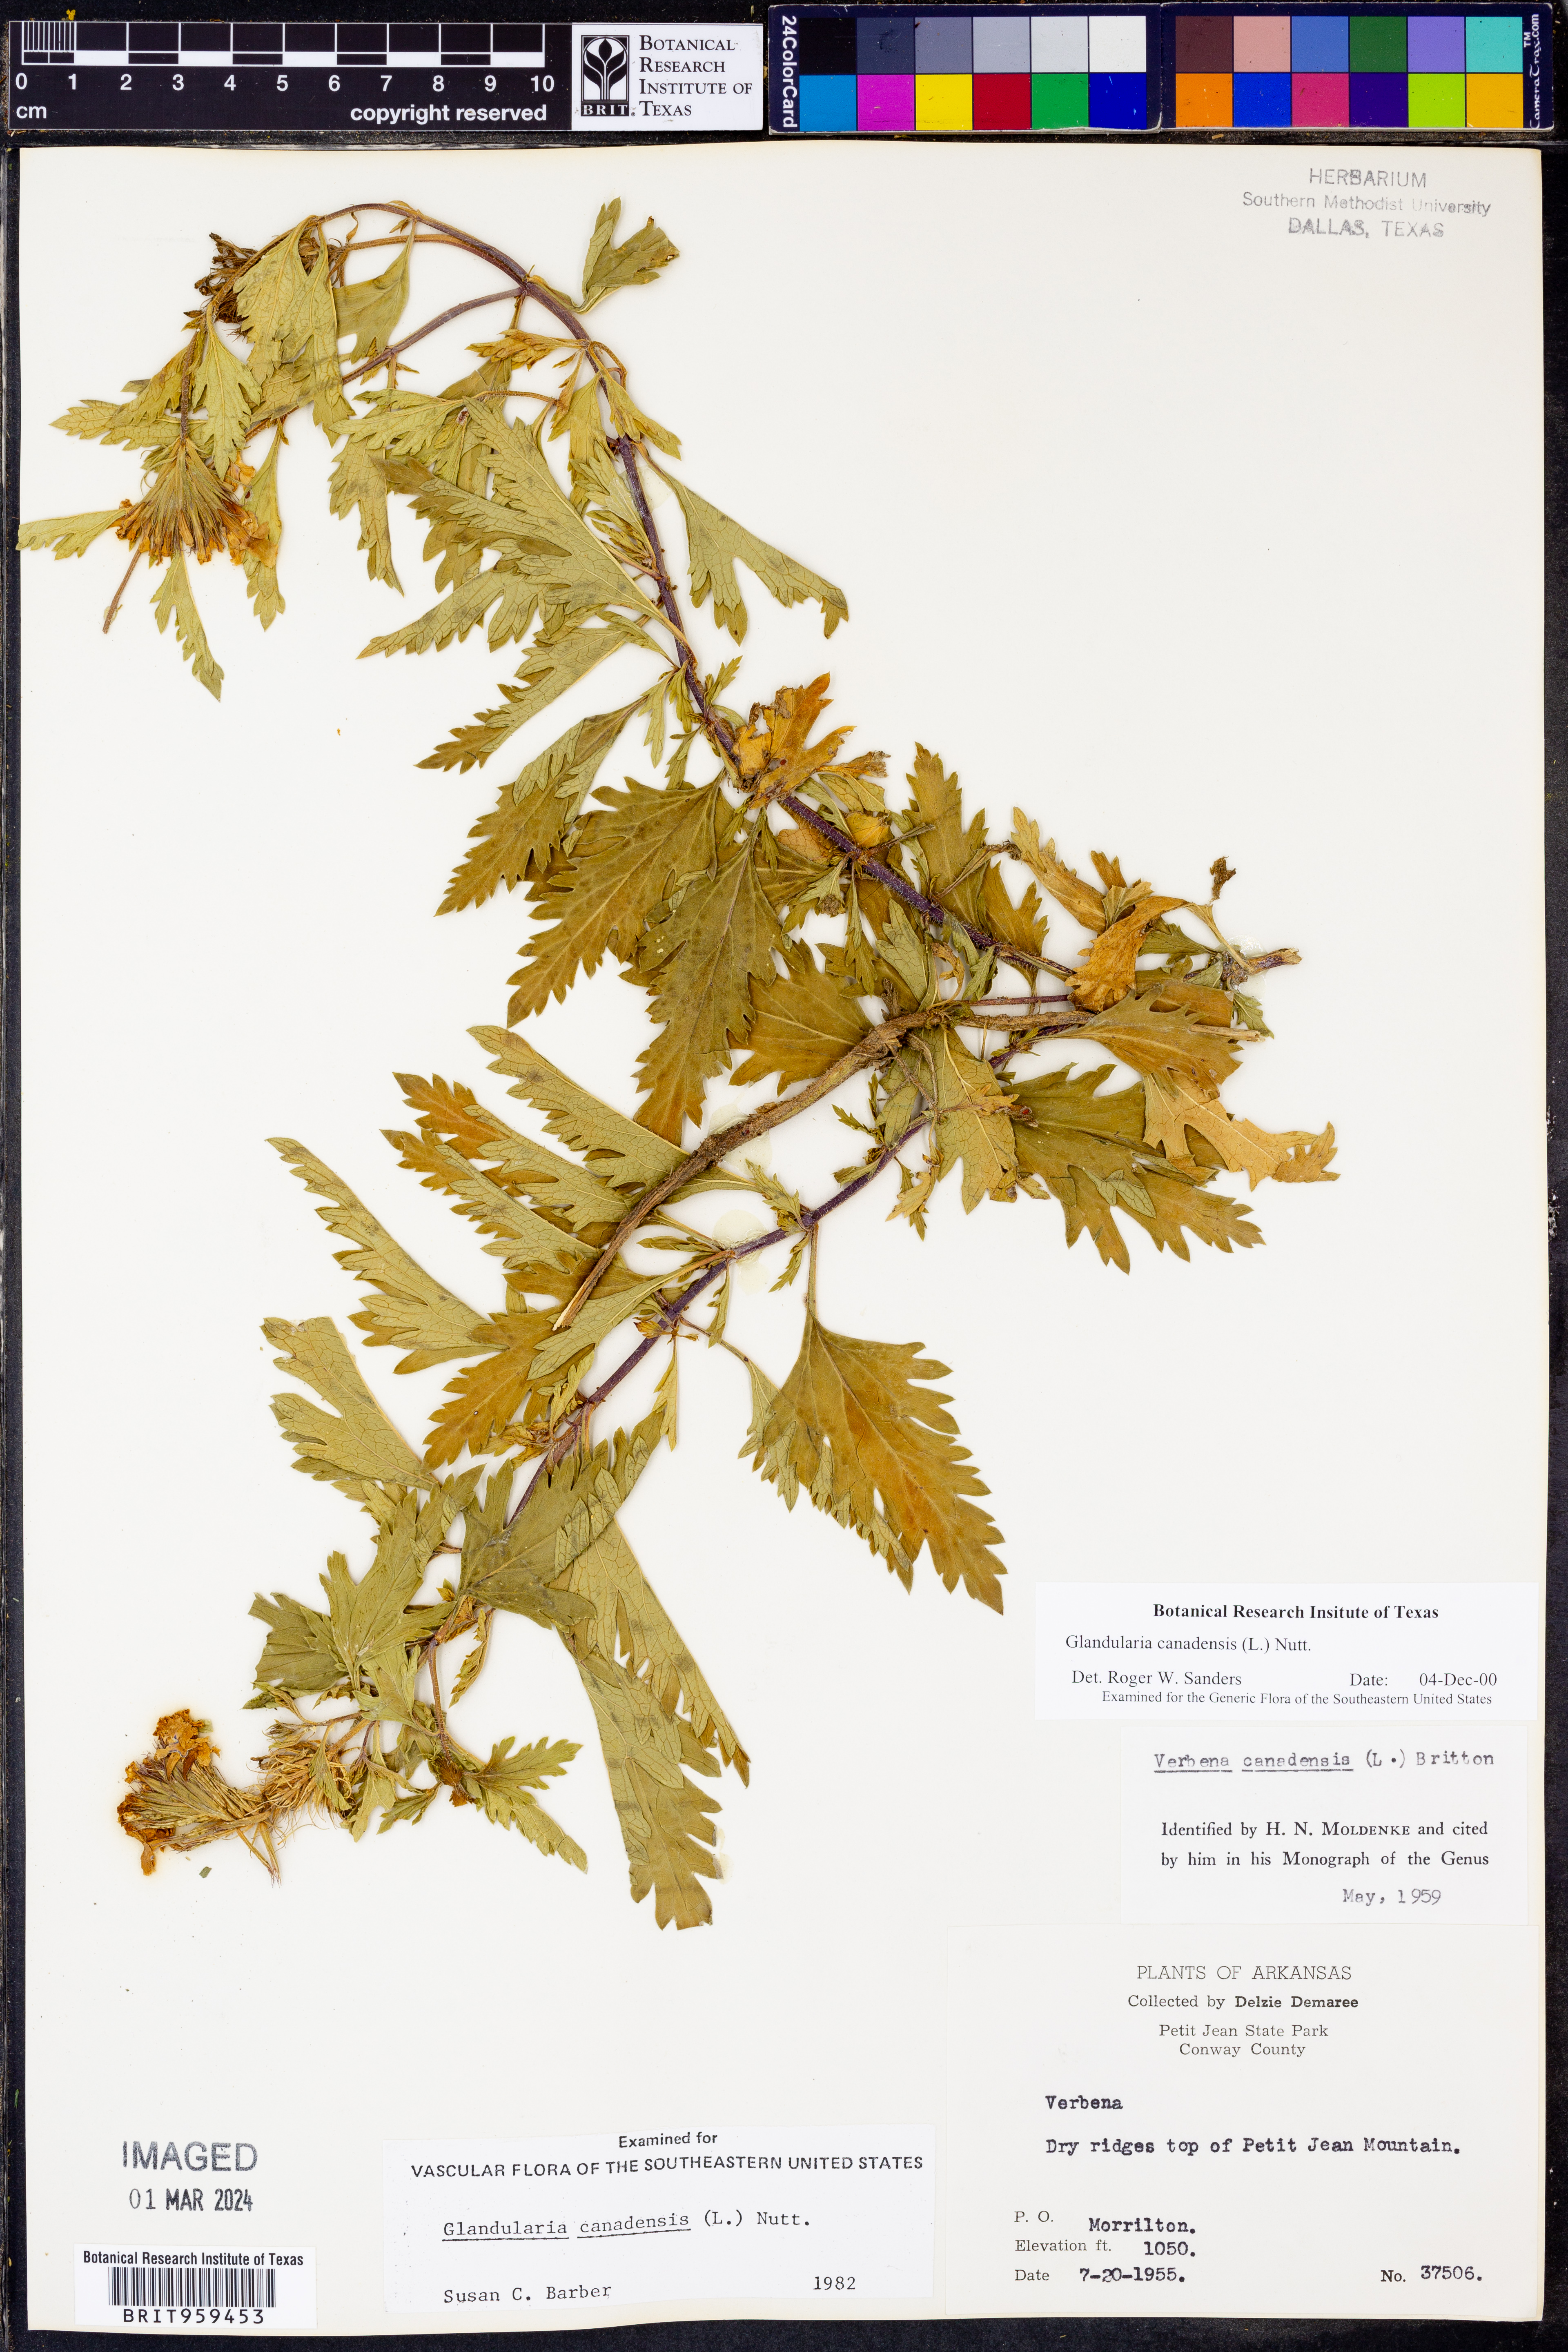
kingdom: Plantae
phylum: Tracheophyta
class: Magnoliopsida
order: Lamiales
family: Verbenaceae
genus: Verbena
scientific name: Verbena canadensis
